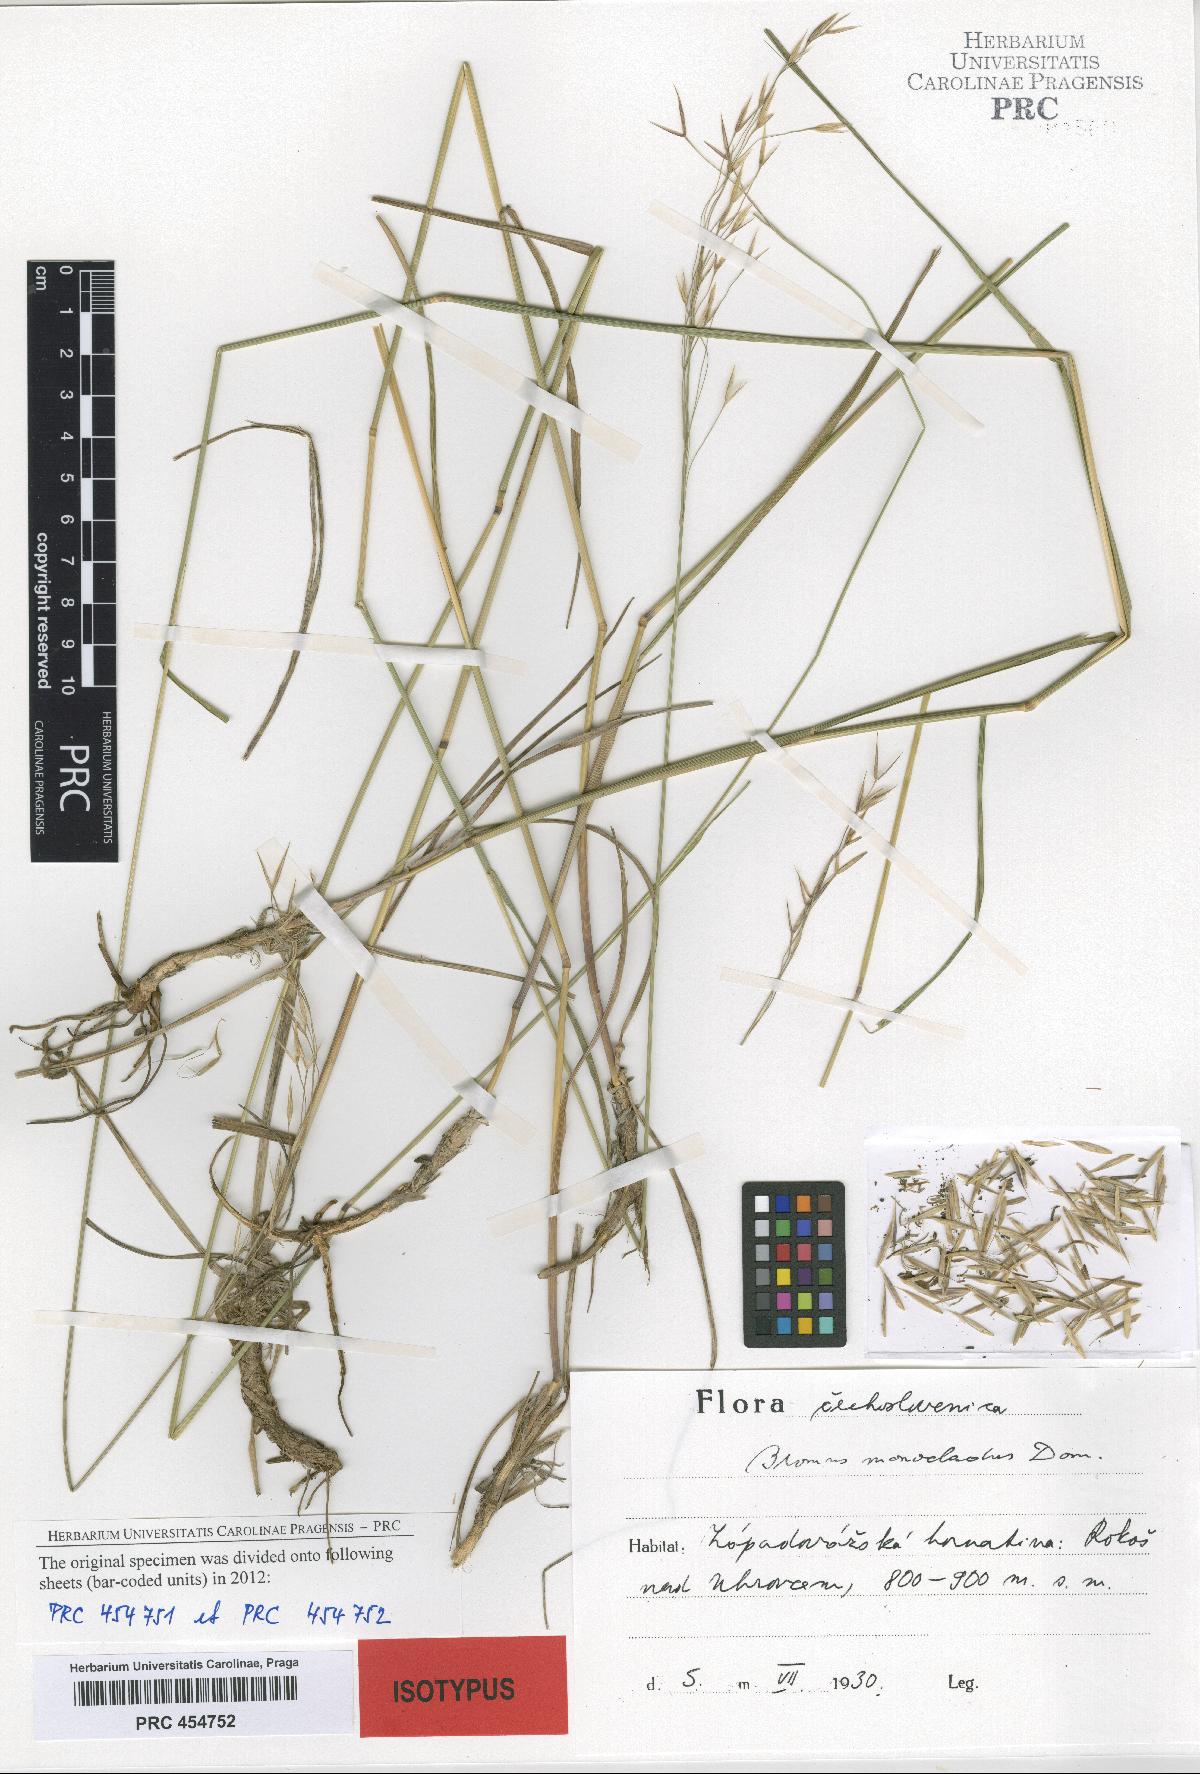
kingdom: Plantae
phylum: Tracheophyta
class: Liliopsida
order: Poales
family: Poaceae
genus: Bromus
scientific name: Bromus pannonicus
